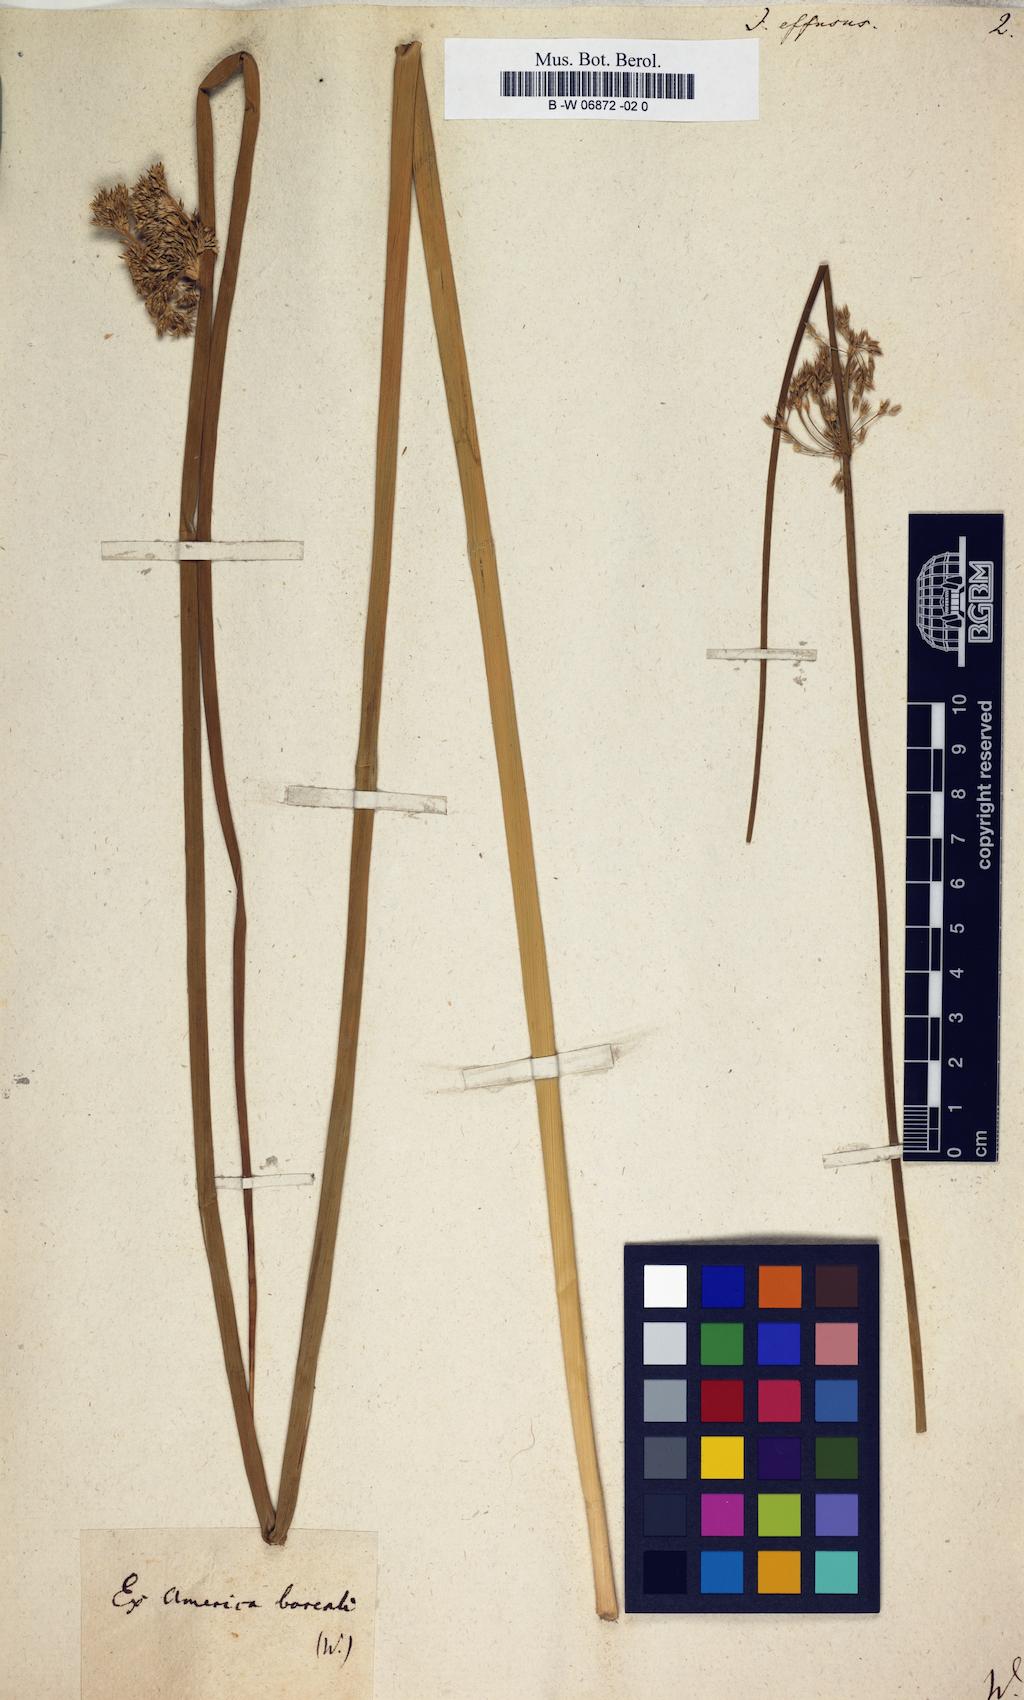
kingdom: Plantae
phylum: Tracheophyta
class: Liliopsida
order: Poales
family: Juncaceae
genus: Juncus
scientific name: Juncus effusus
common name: Soft rush
